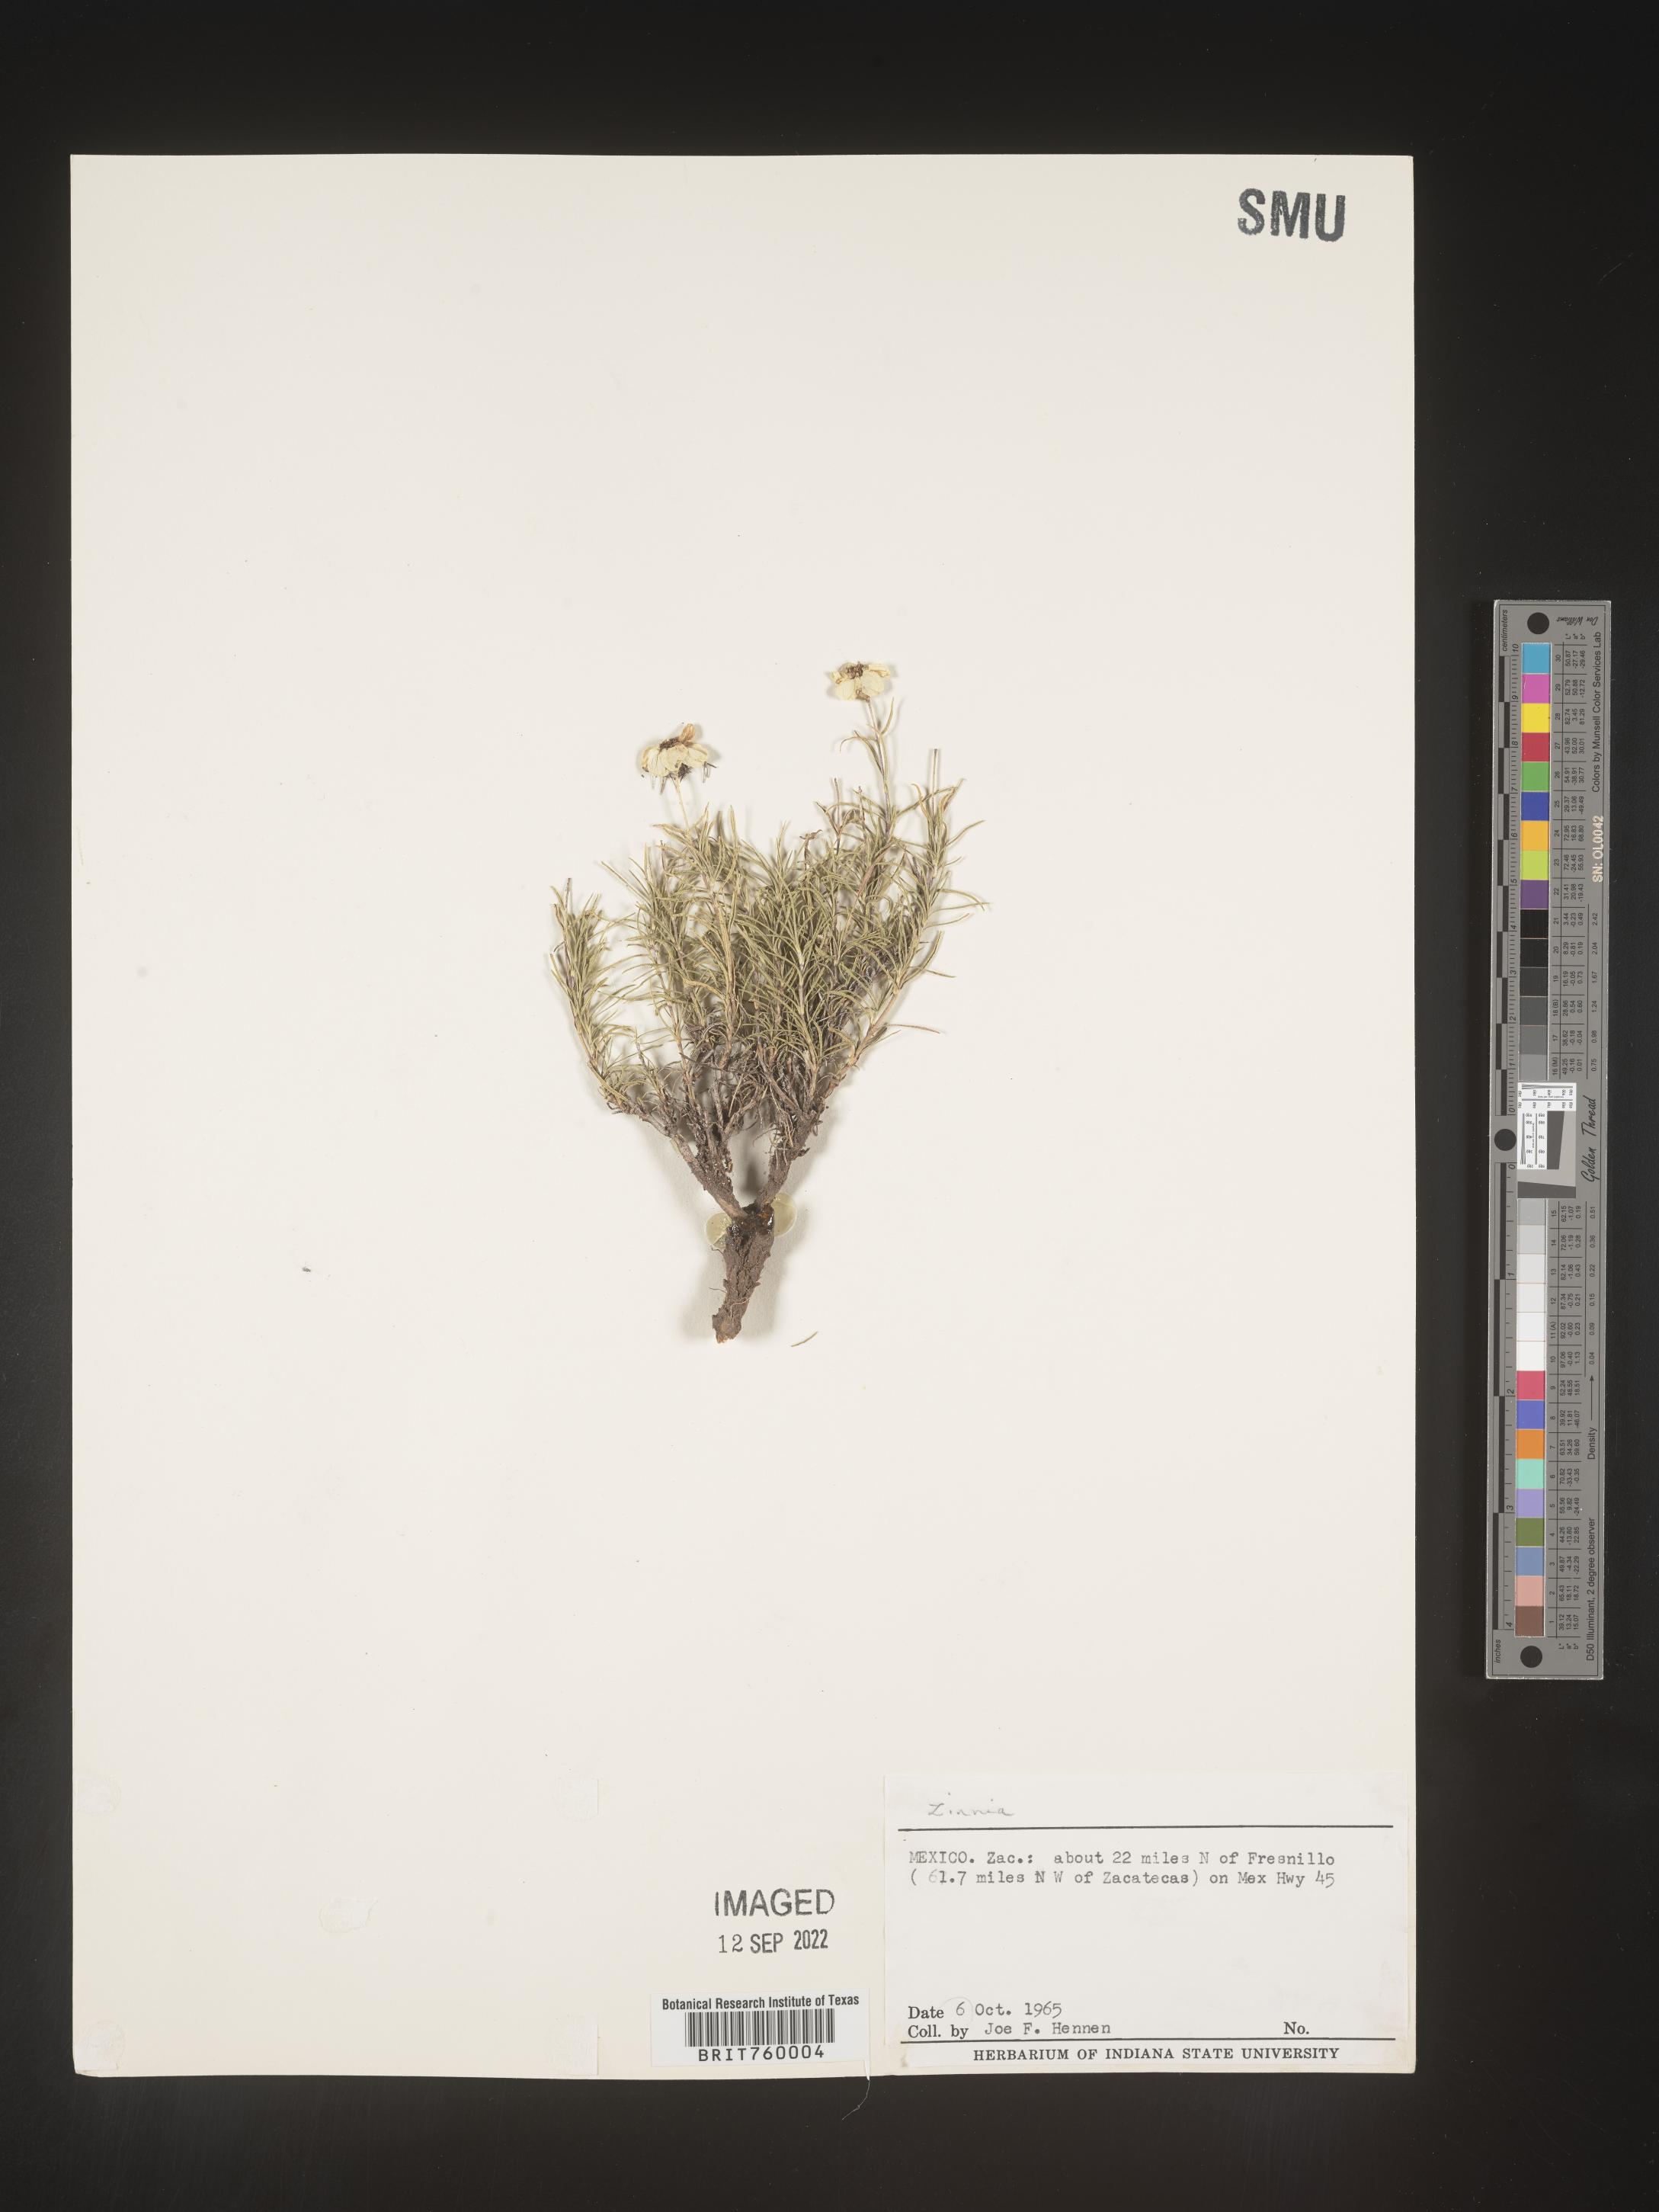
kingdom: Plantae
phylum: Tracheophyta
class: Magnoliopsida
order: Asterales
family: Asteraceae
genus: Zinnia
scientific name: Zinnia
